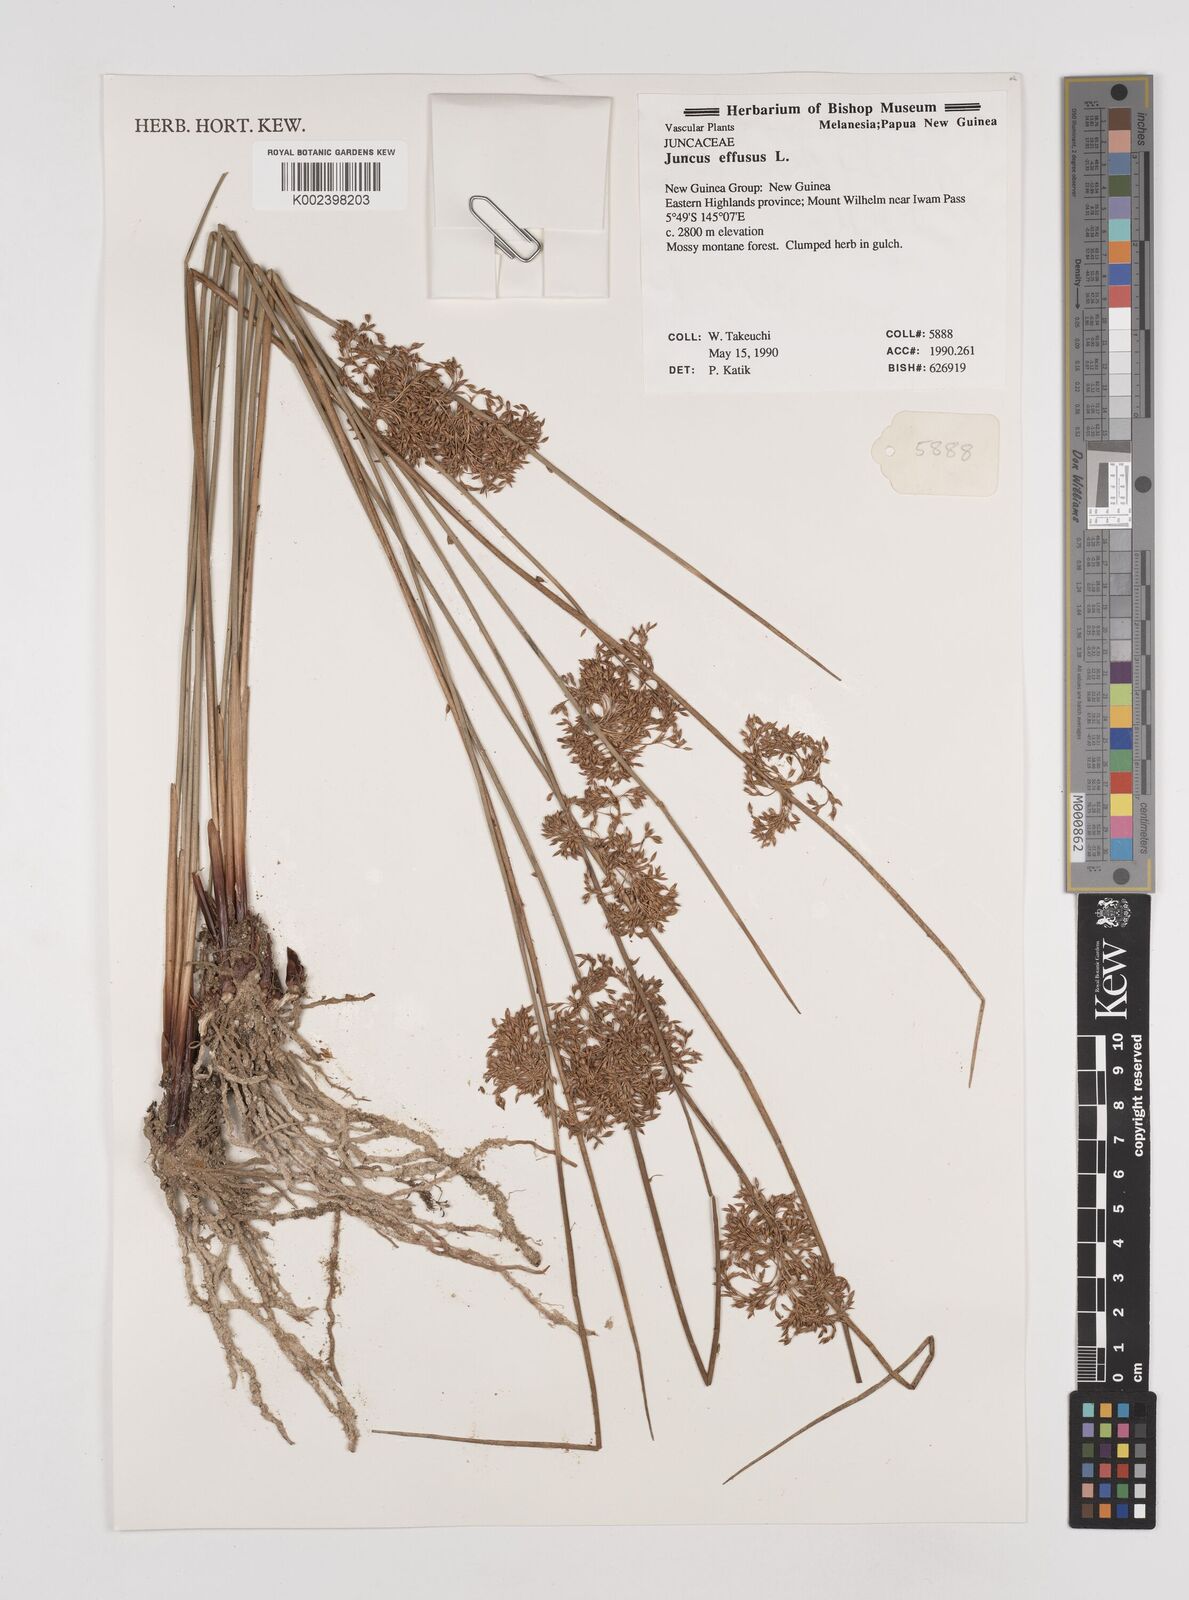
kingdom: Plantae
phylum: Tracheophyta
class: Liliopsida
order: Poales
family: Juncaceae
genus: Juncus
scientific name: Juncus decipiens
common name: Lamp rush
